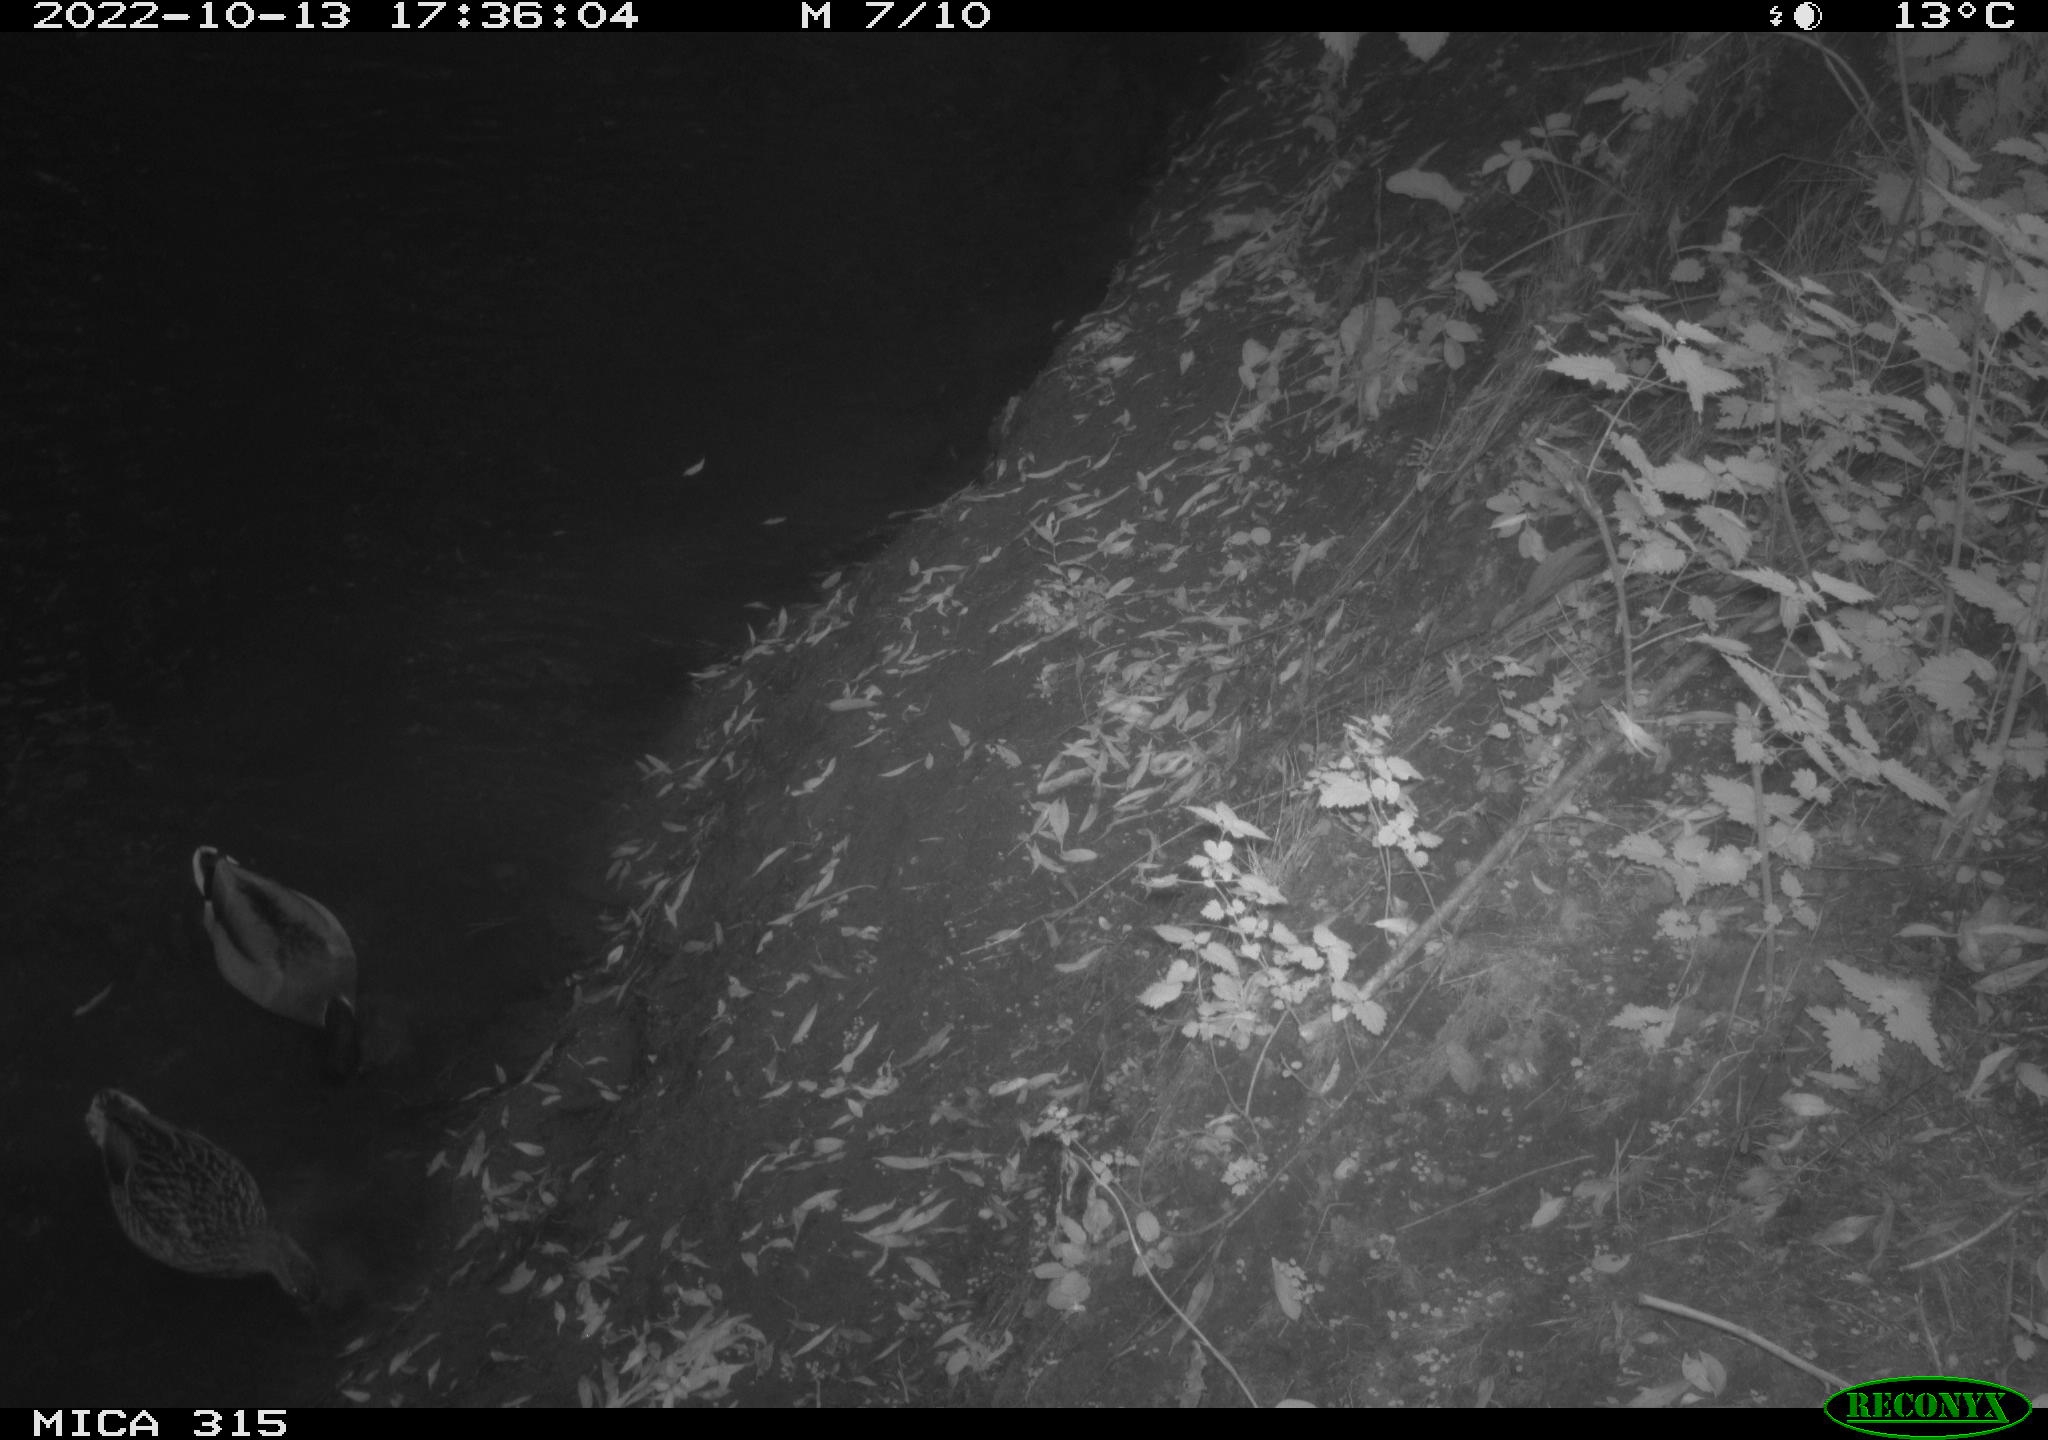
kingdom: Animalia
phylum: Chordata
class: Aves
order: Anseriformes
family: Anatidae
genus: Anas
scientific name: Anas
